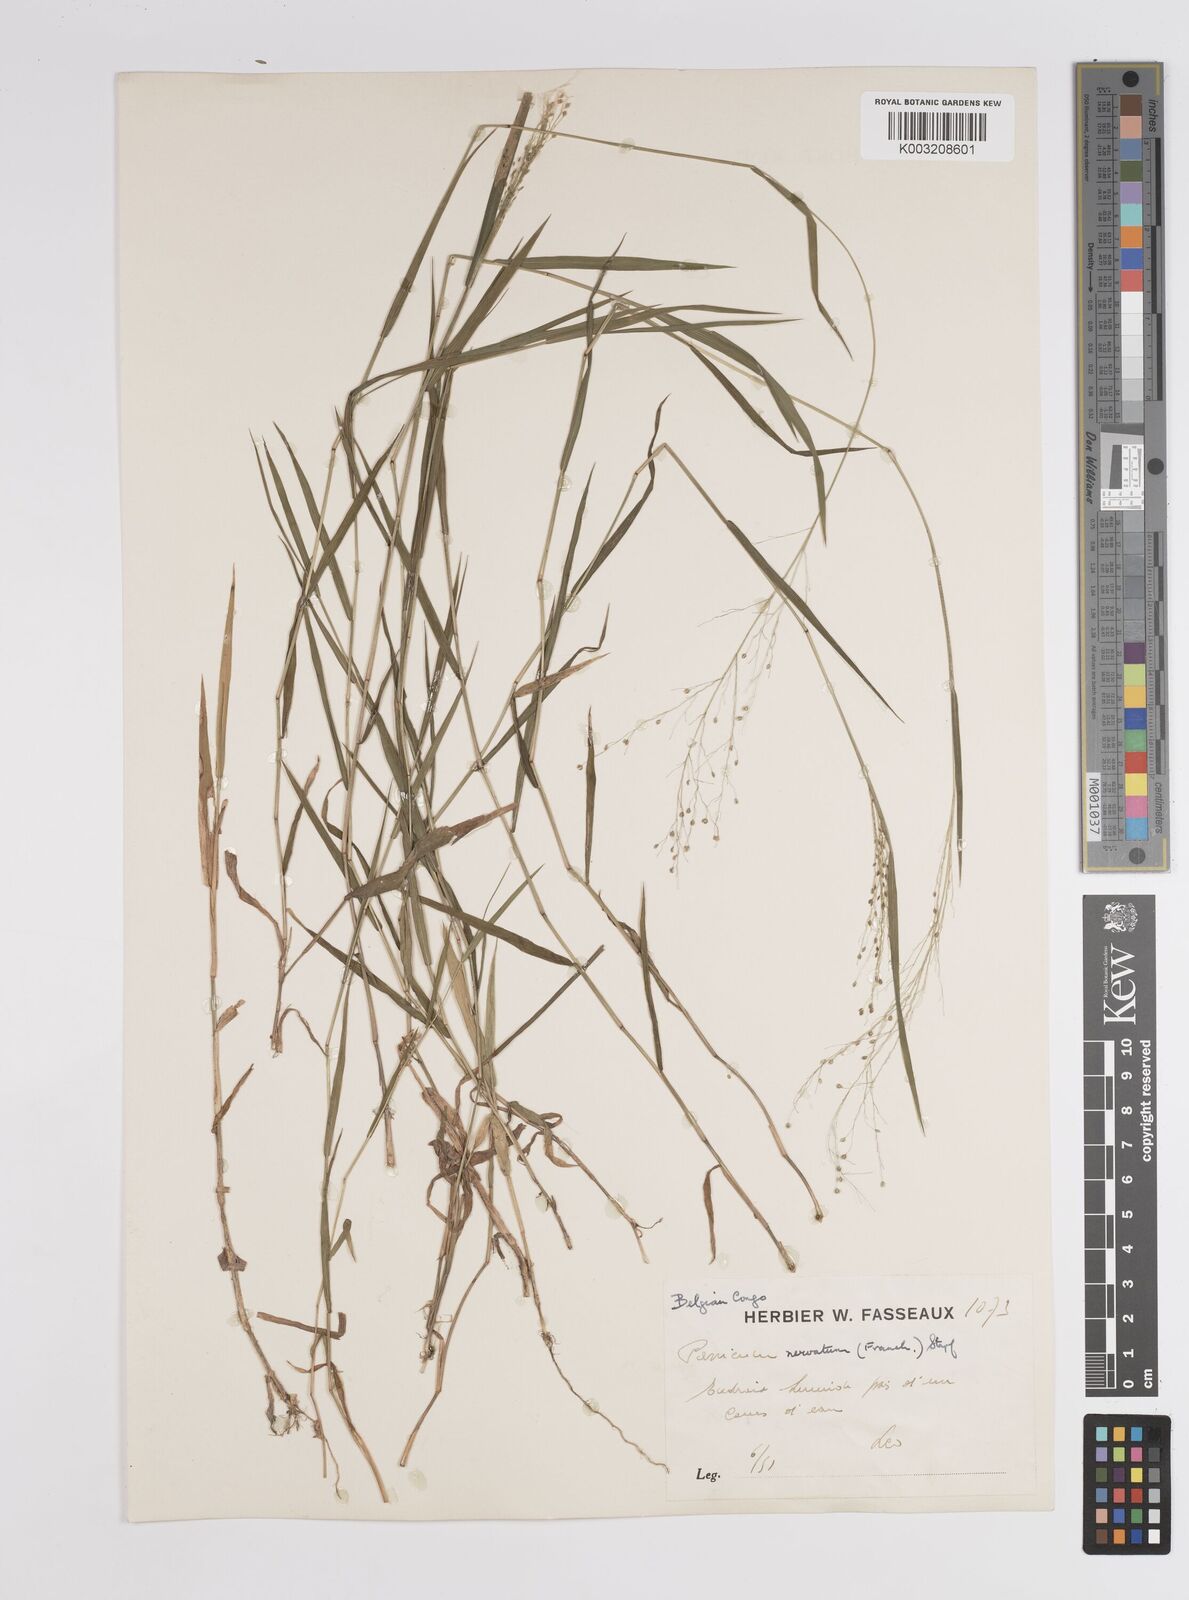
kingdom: Plantae
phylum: Tracheophyta
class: Liliopsida
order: Poales
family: Poaceae
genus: Trichanthecium
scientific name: Trichanthecium nervatum
